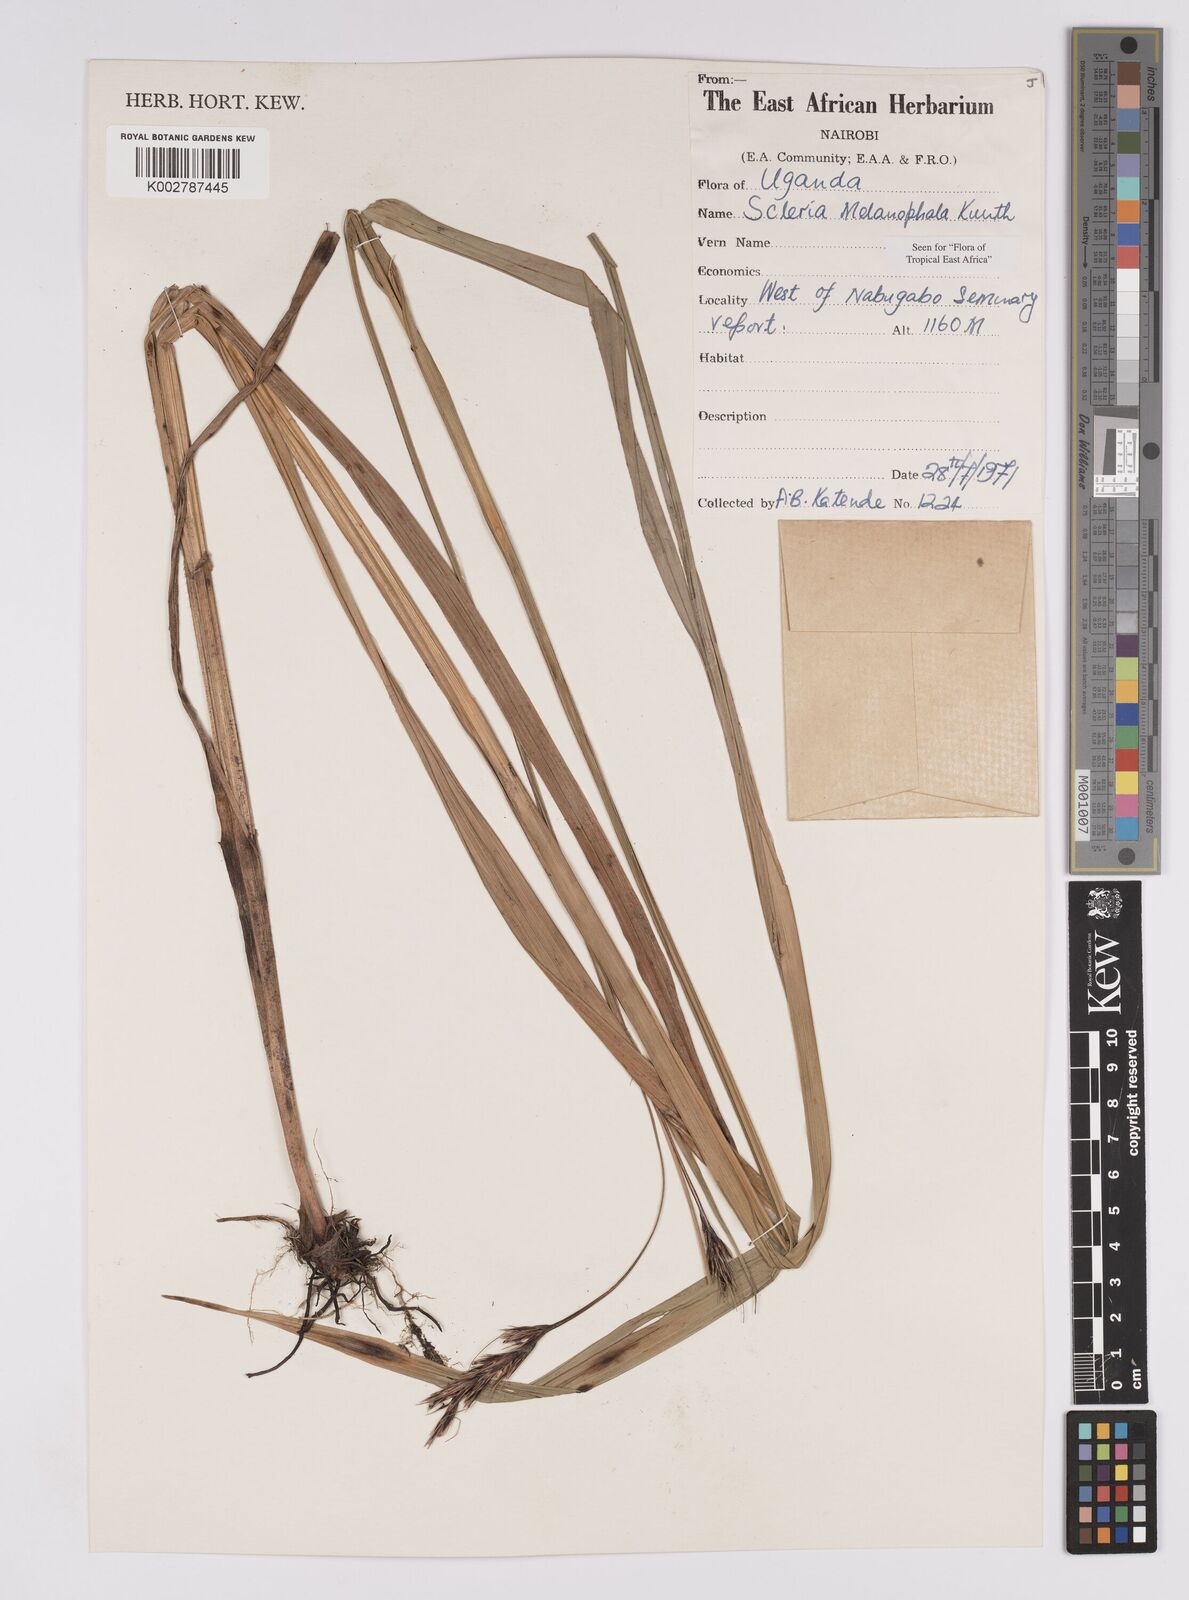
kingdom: Plantae
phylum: Tracheophyta
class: Liliopsida
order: Poales
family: Cyperaceae
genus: Scleria
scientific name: Scleria melanomphala
